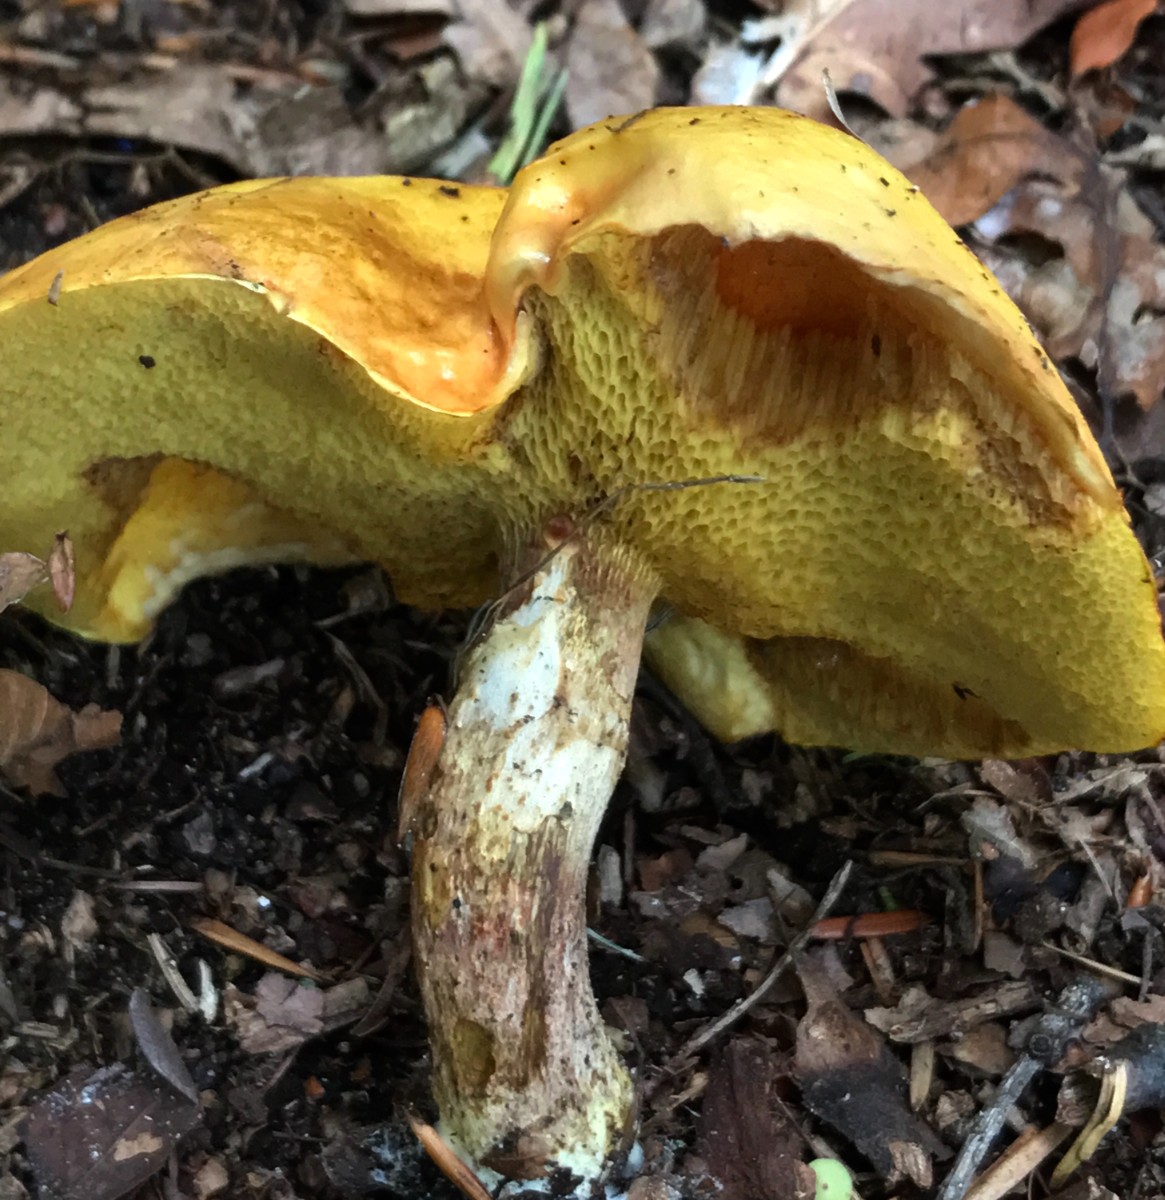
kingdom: Fungi
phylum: Basidiomycota
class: Agaricomycetes
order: Boletales
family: Suillaceae
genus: Suillus
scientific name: Suillus grevillei
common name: lærke-slimrørhat
